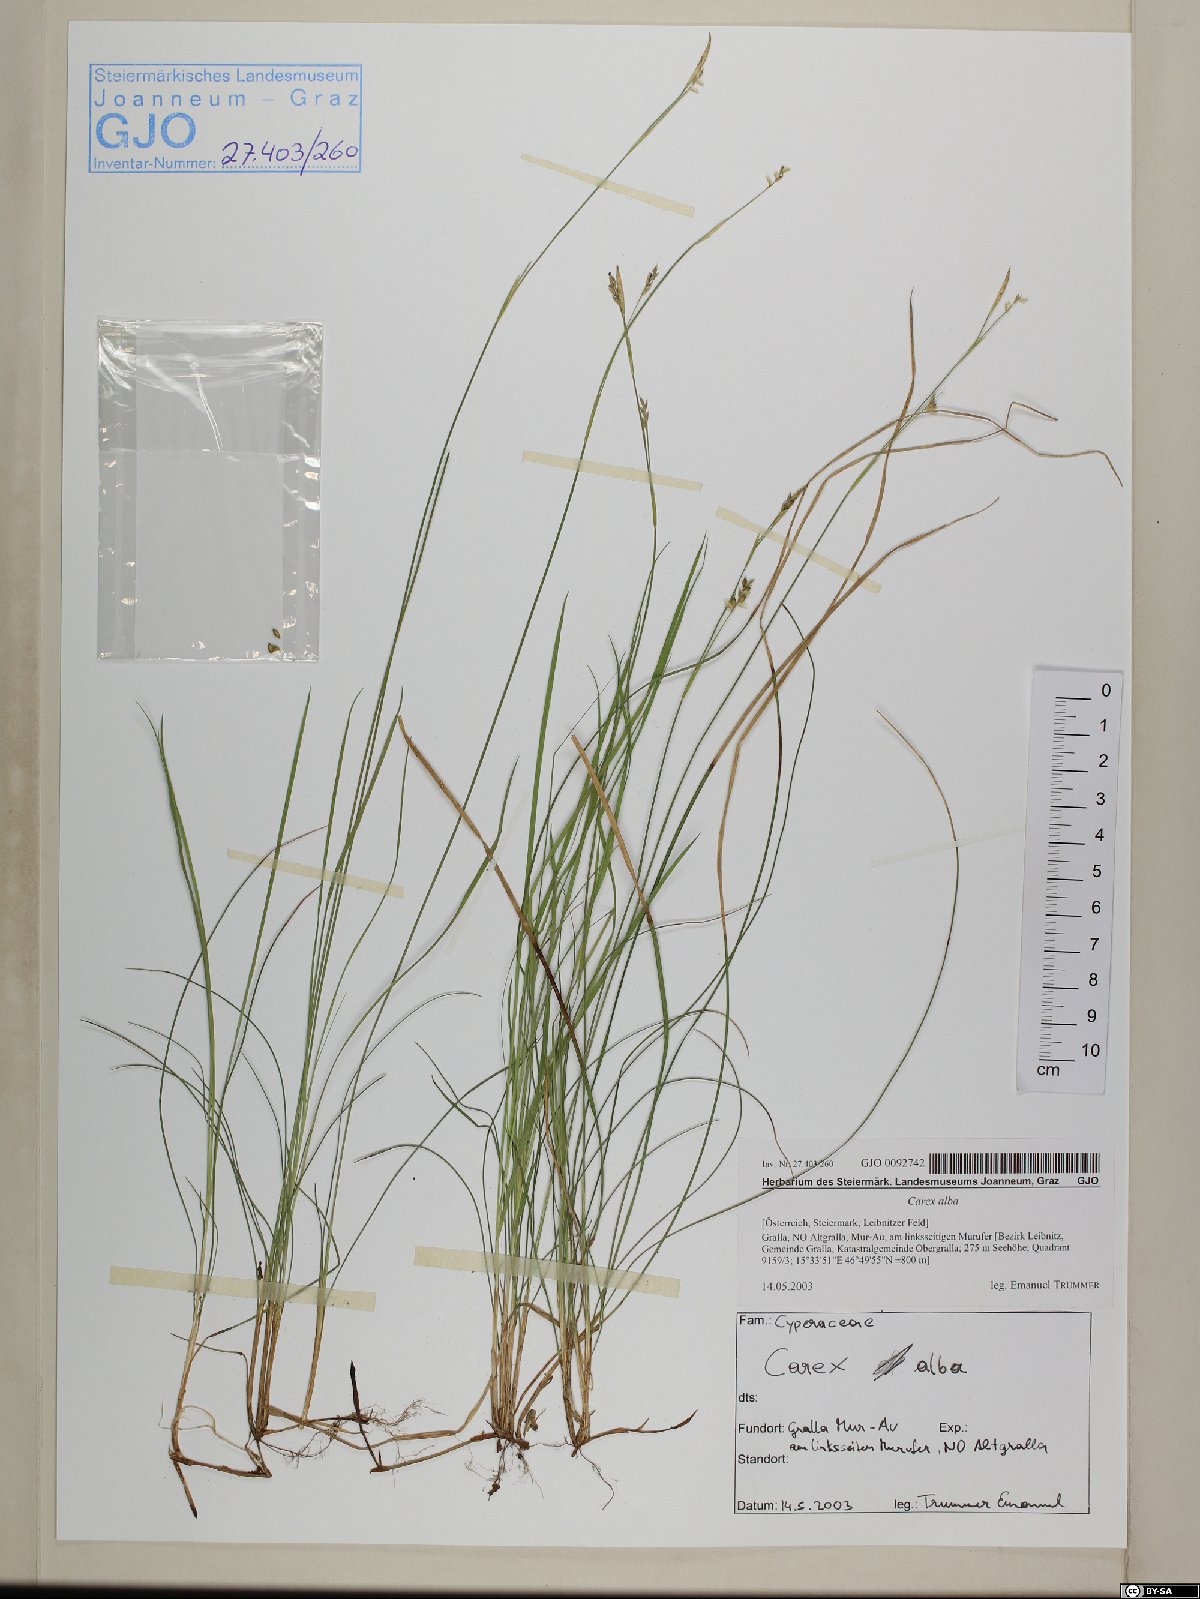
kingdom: Plantae
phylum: Tracheophyta
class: Liliopsida
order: Poales
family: Cyperaceae
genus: Carex
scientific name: Carex alba
